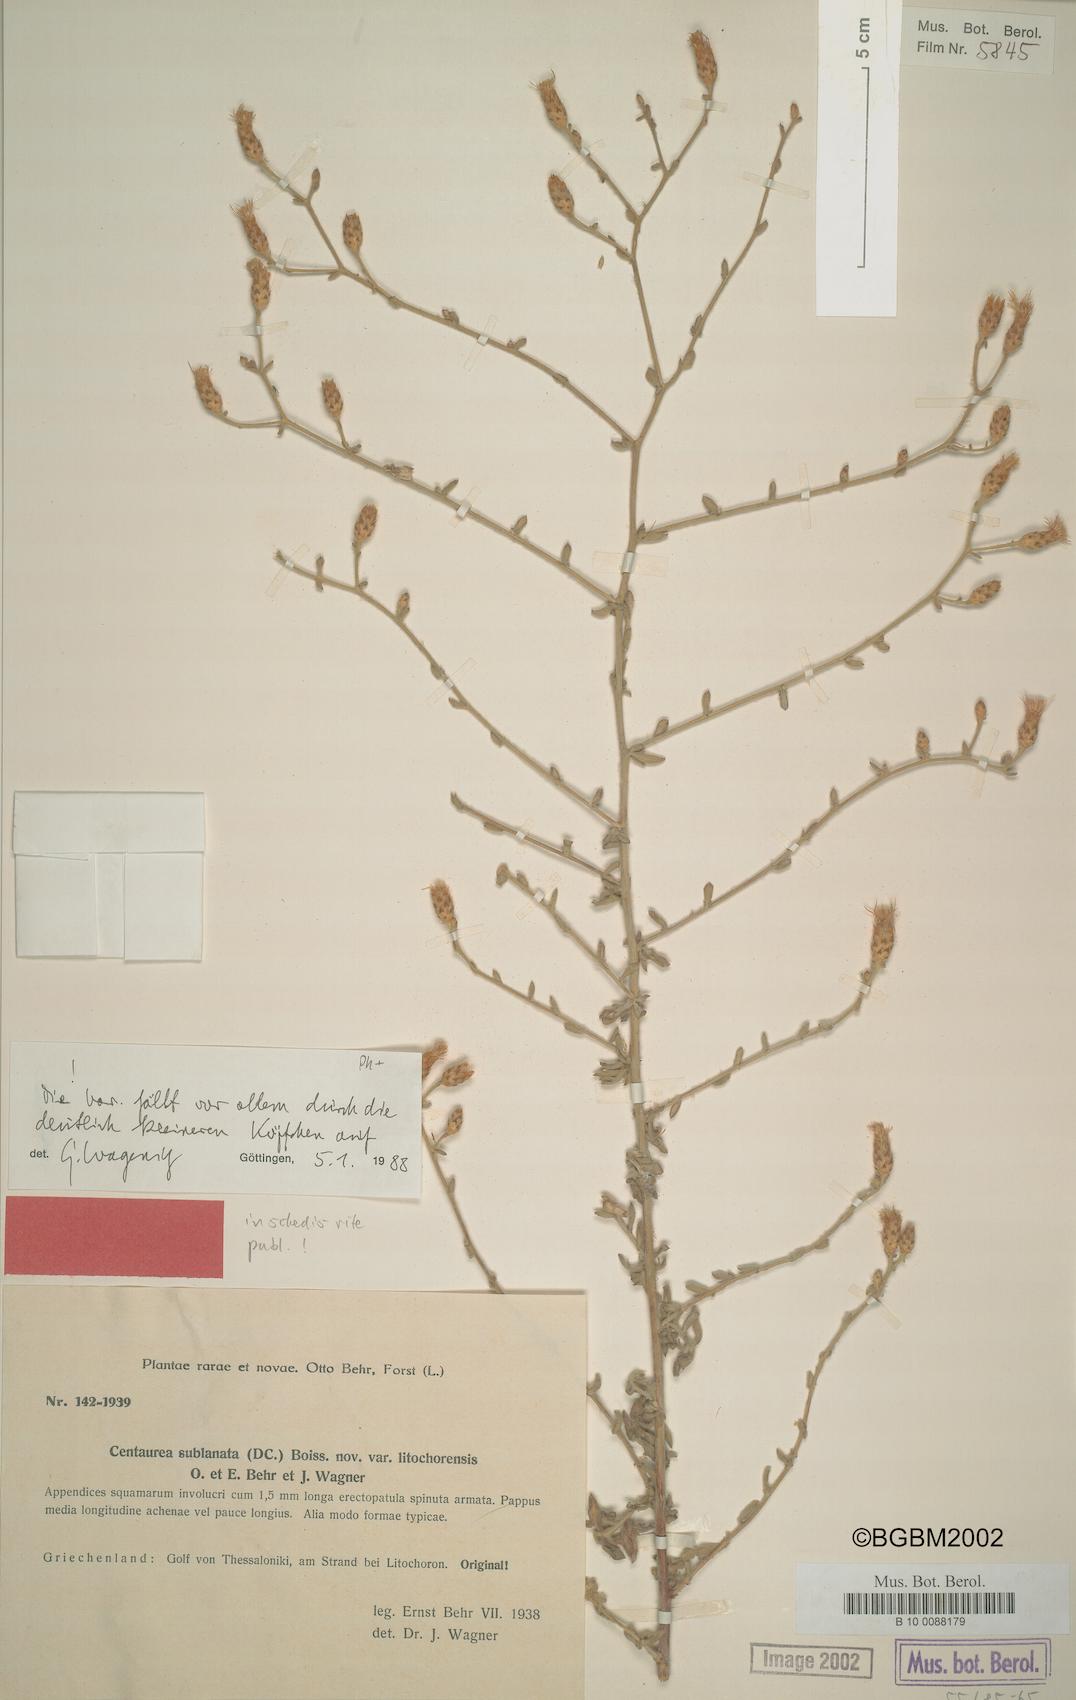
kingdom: Plantae
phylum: Tracheophyta
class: Magnoliopsida
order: Asterales
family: Asteraceae
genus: Centaurea
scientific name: Centaurea cuneifolia
